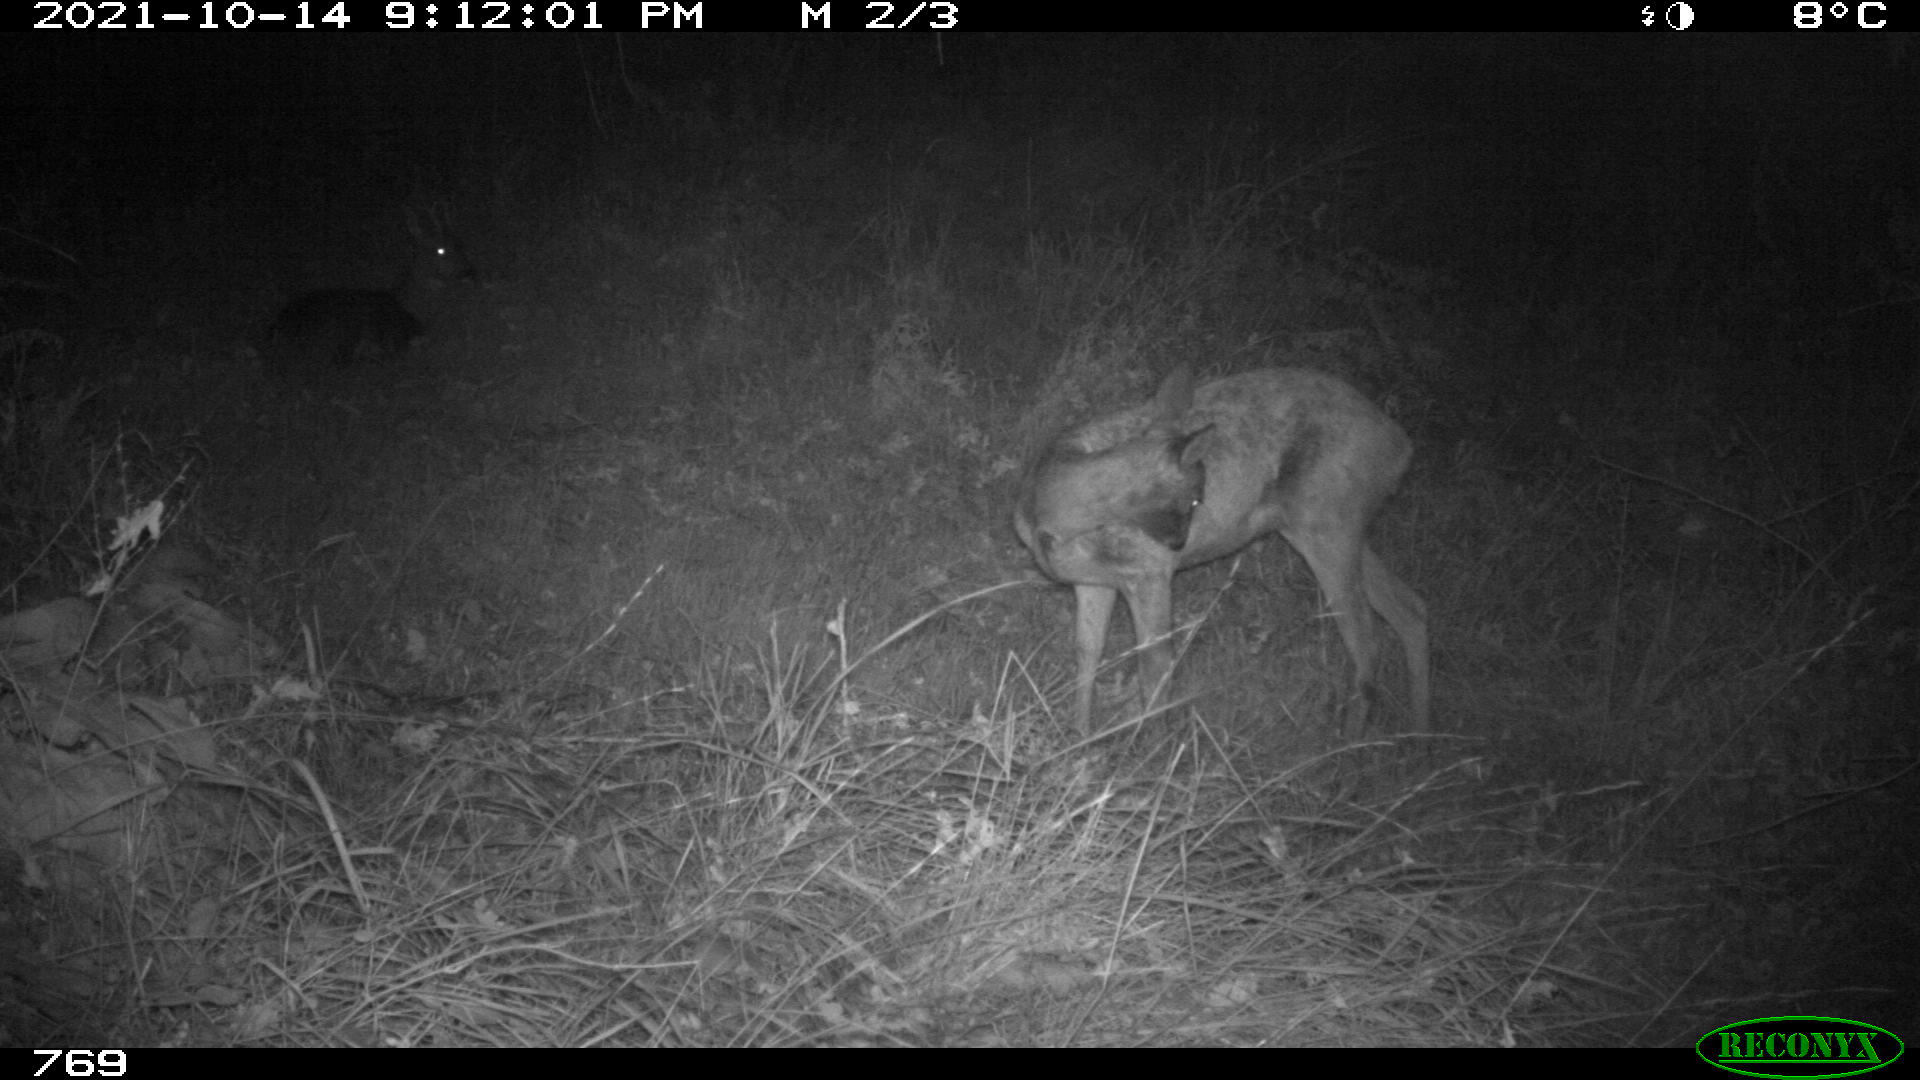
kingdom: Animalia
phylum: Chordata
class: Mammalia
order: Artiodactyla
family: Cervidae
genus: Capreolus
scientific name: Capreolus capreolus
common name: Western roe deer
